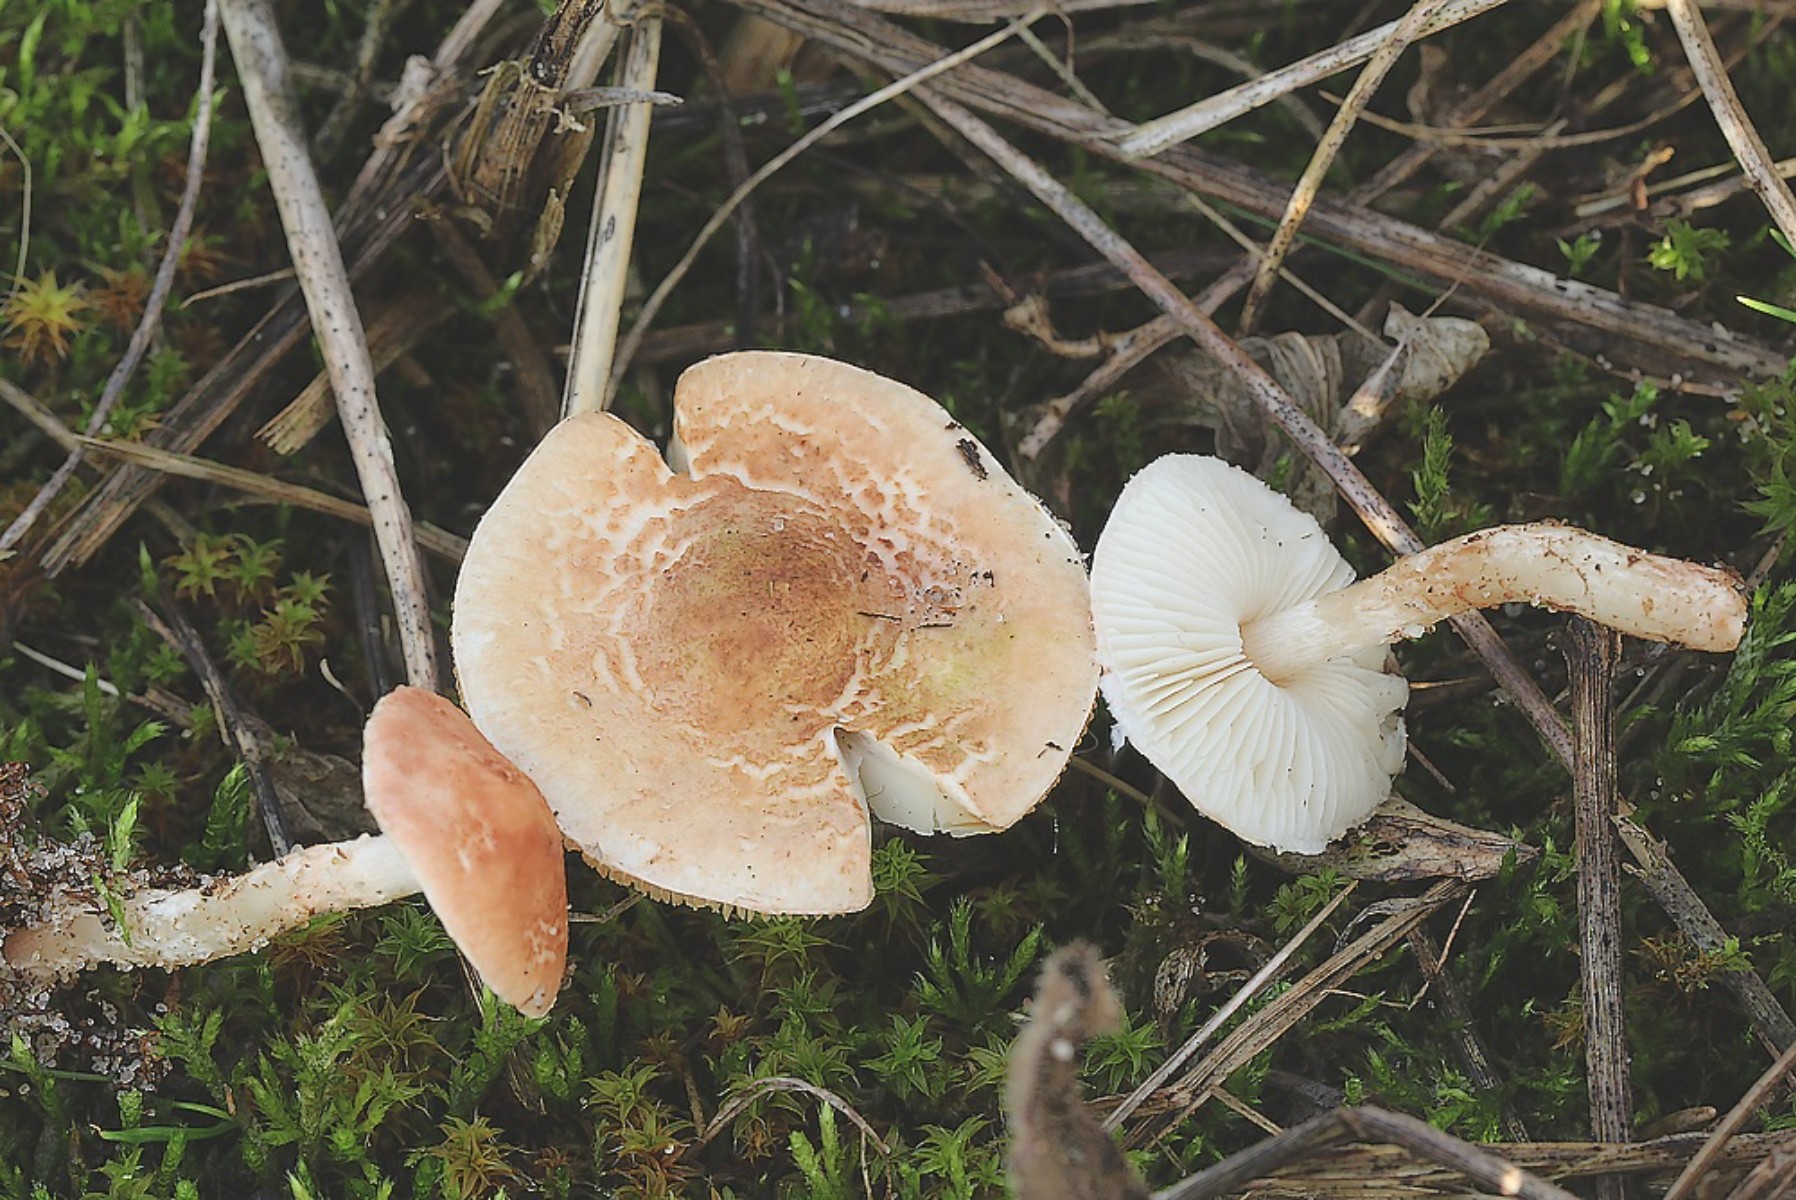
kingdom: Fungi
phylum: Basidiomycota
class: Agaricomycetes
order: Agaricales
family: Agaricaceae
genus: Lepiota
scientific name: Lepiota pseudolilacea
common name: gråbrun parasolhat
